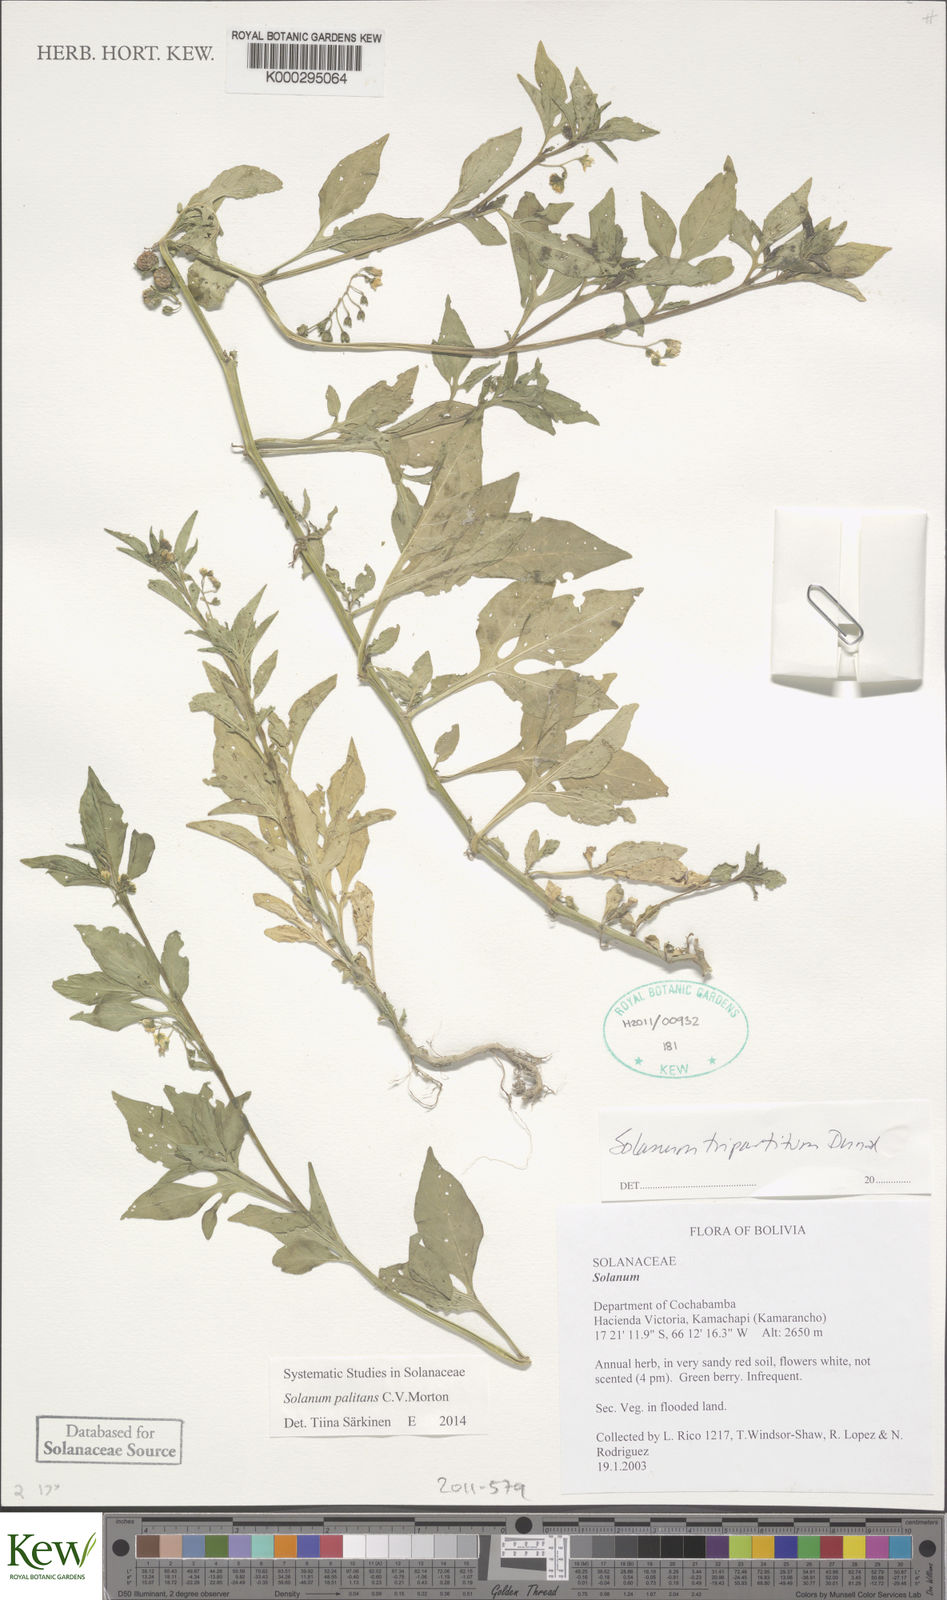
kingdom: Plantae
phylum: Tracheophyta
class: Magnoliopsida
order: Solanales
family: Solanaceae
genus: Solanum
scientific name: Solanum palitans
